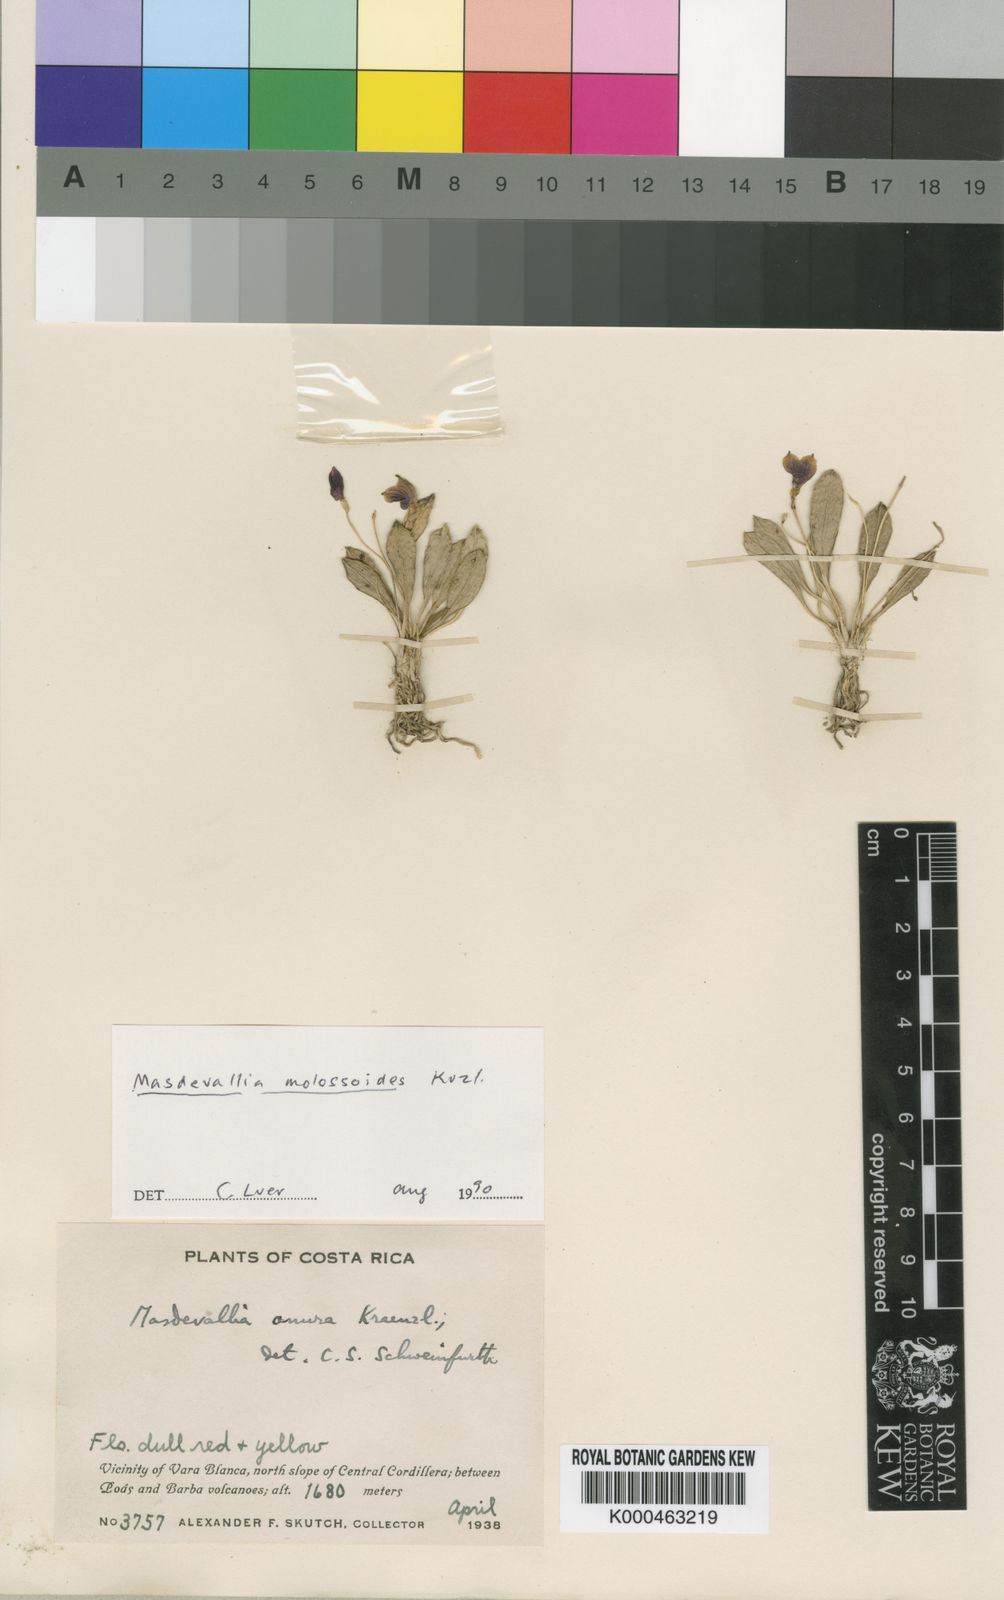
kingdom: Plantae
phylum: Tracheophyta
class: Liliopsida
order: Asparagales
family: Orchidaceae
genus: Masdevallia
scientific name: Masdevallia molossoides
